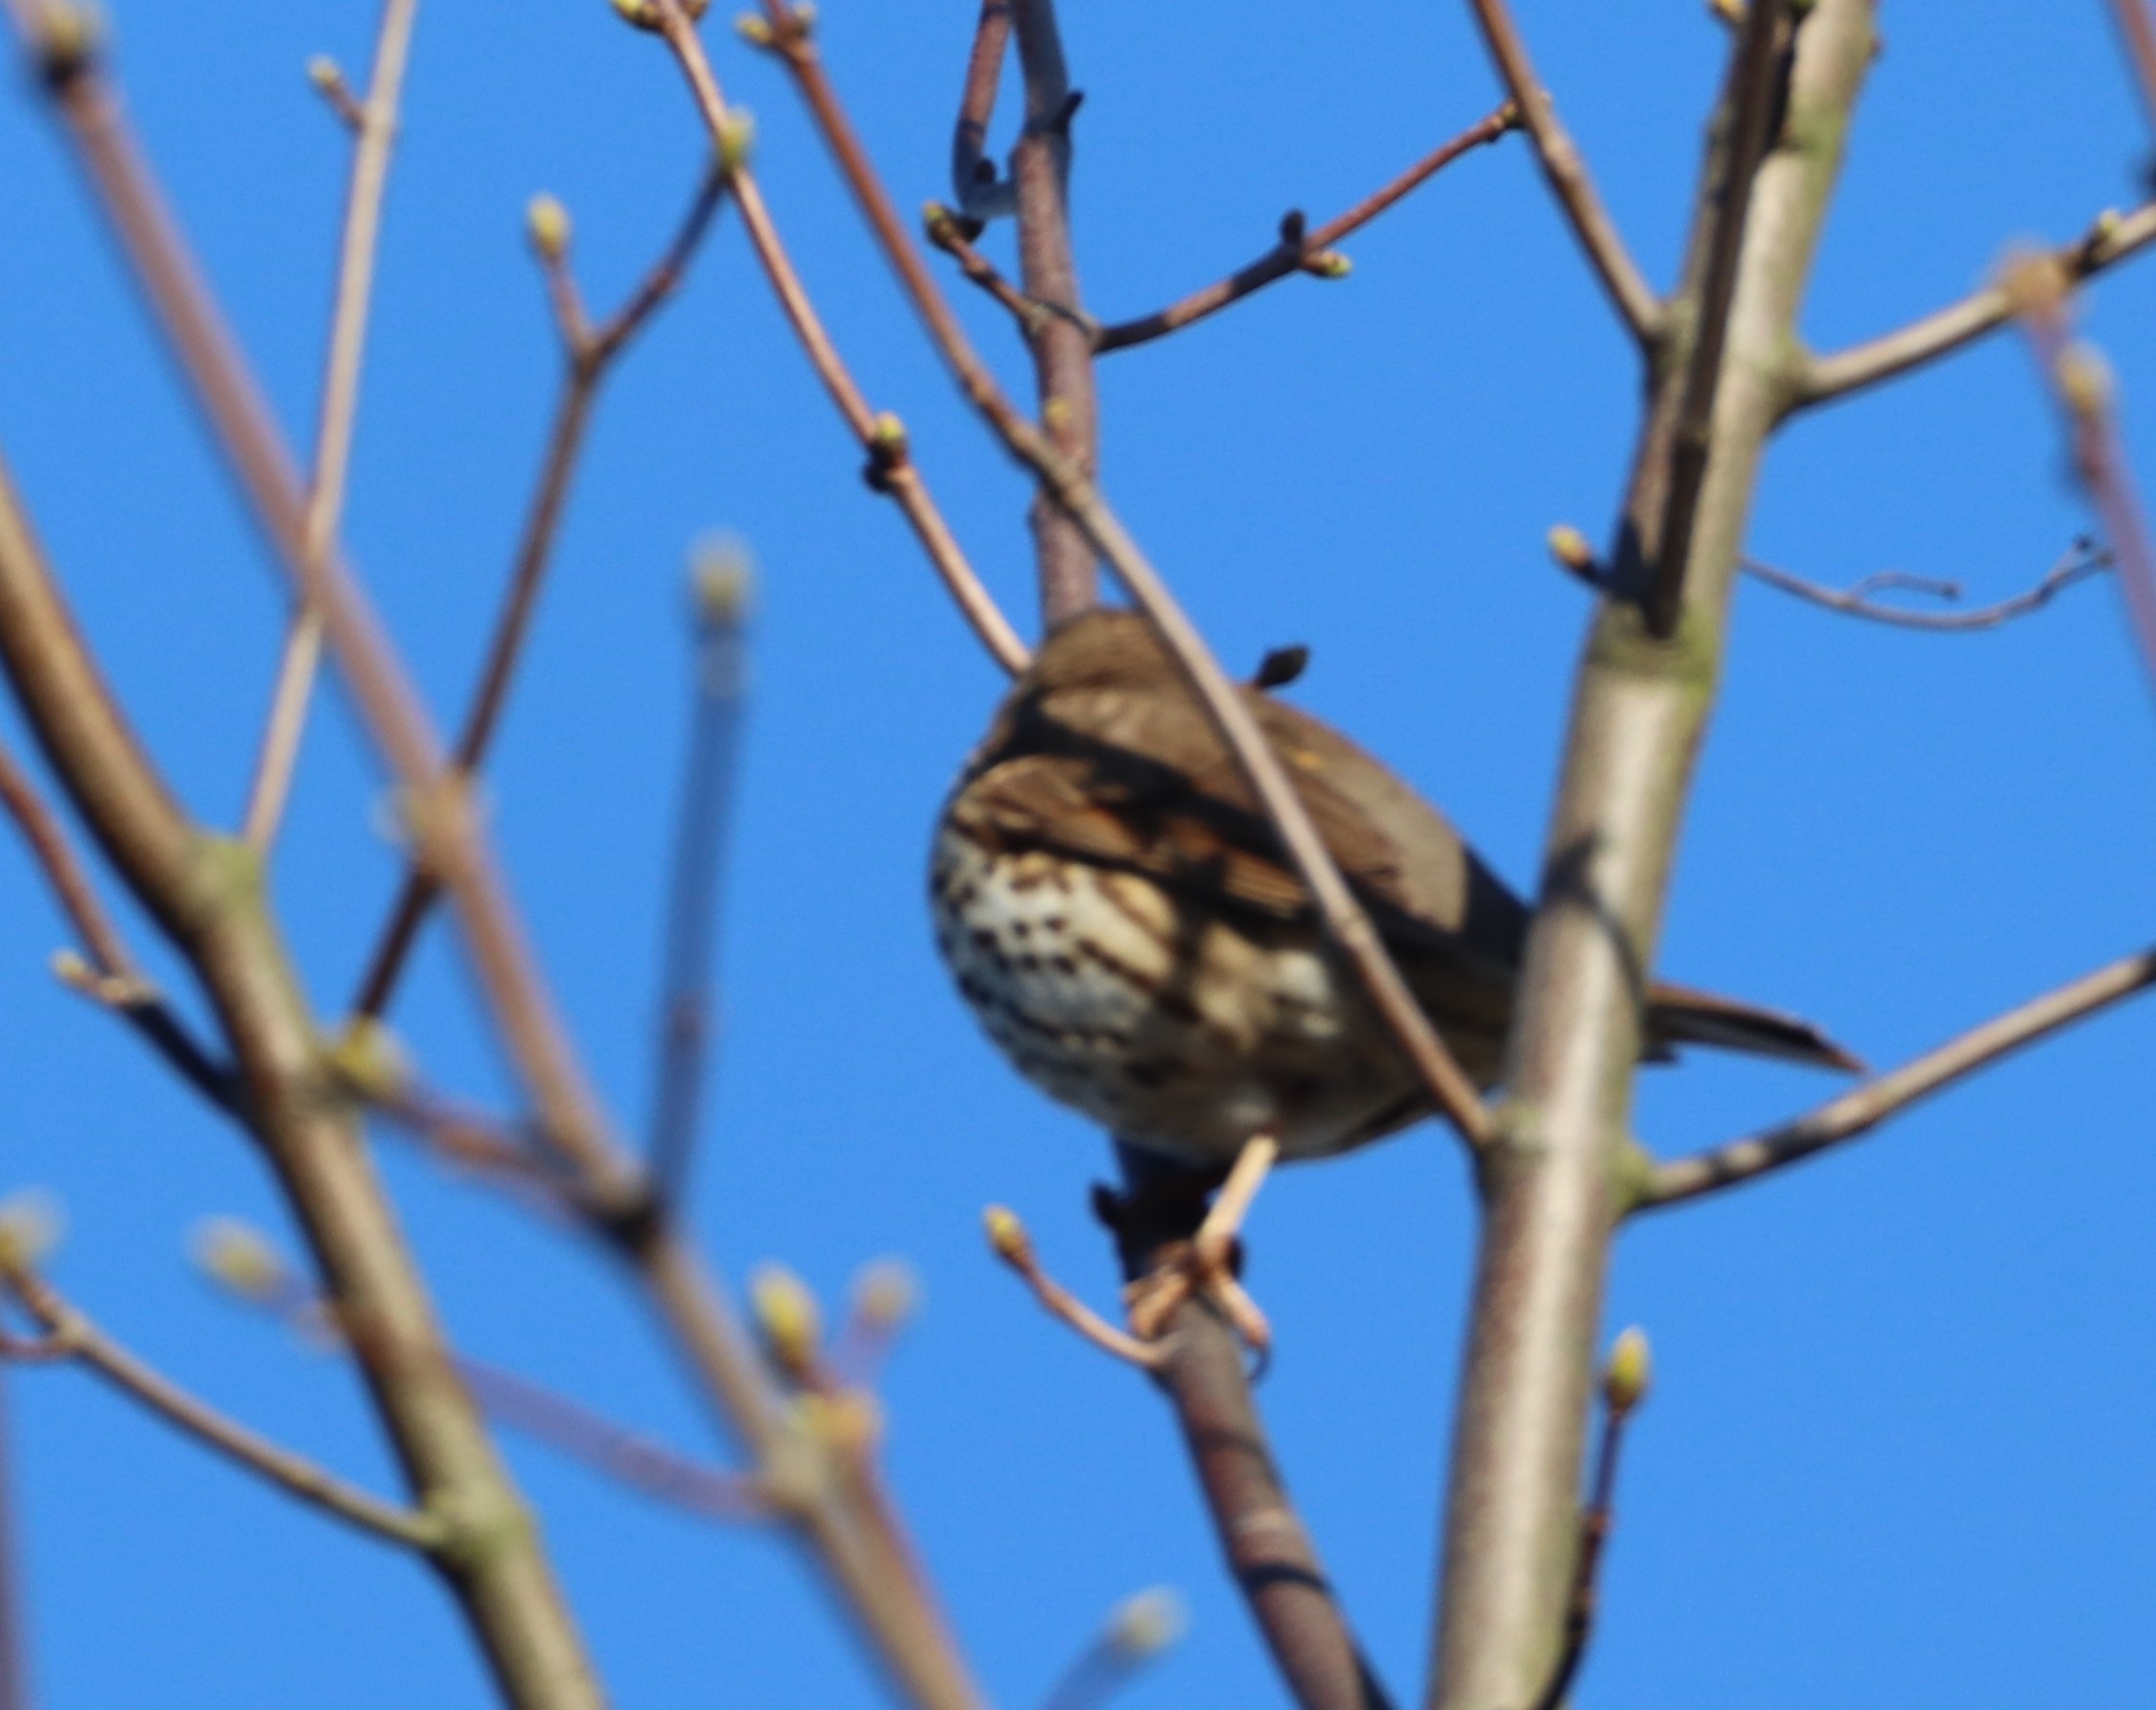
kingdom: Animalia
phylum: Chordata
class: Aves
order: Passeriformes
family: Turdidae
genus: Turdus
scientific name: Turdus philomelos
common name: Sangdrossel
